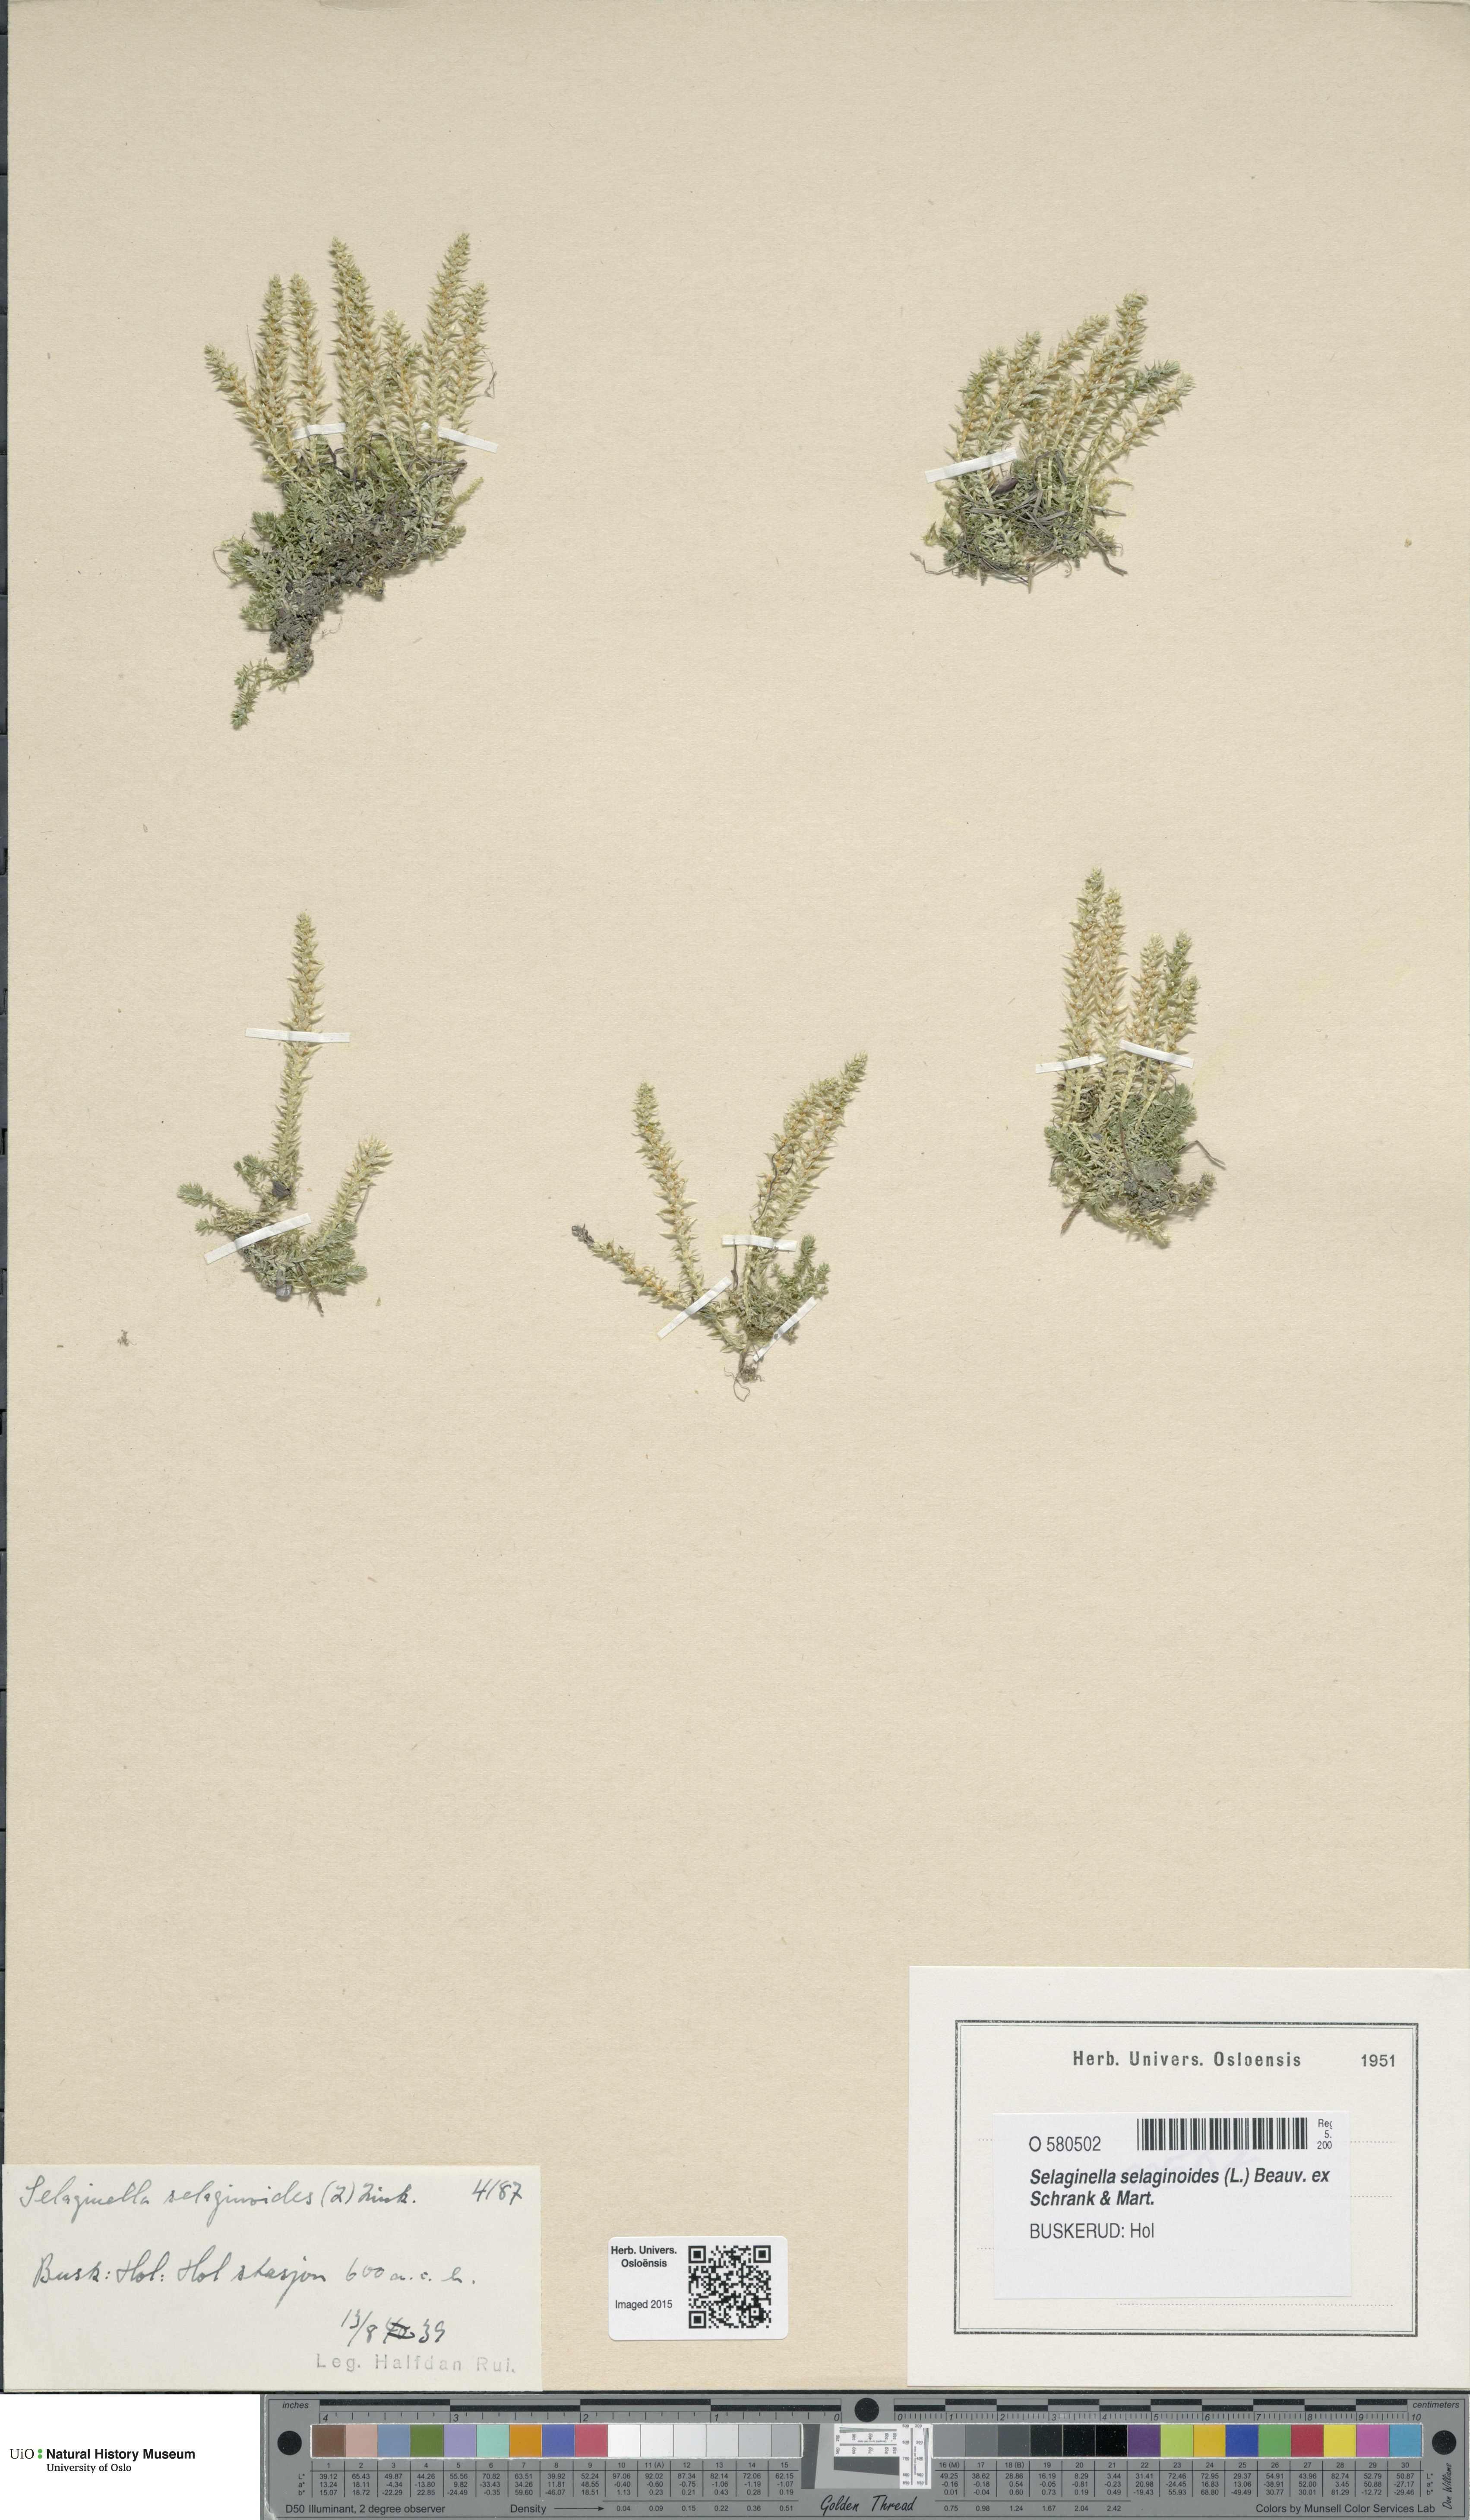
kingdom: Plantae
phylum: Tracheophyta
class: Lycopodiopsida
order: Selaginellales
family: Selaginellaceae
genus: Selaginella
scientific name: Selaginella selaginoides
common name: Prickly mountain-moss
